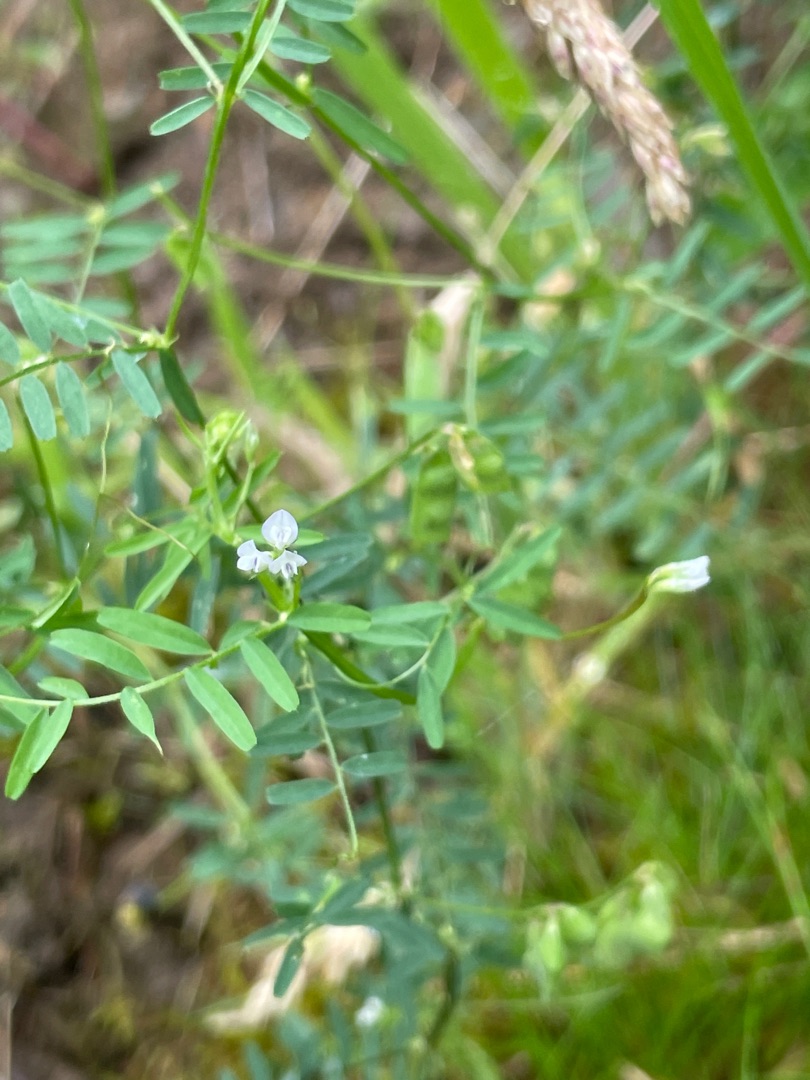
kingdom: Plantae
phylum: Tracheophyta
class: Magnoliopsida
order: Fabales
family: Fabaceae
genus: Vicia
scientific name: Vicia hirsuta
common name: Tofrøet vikke
